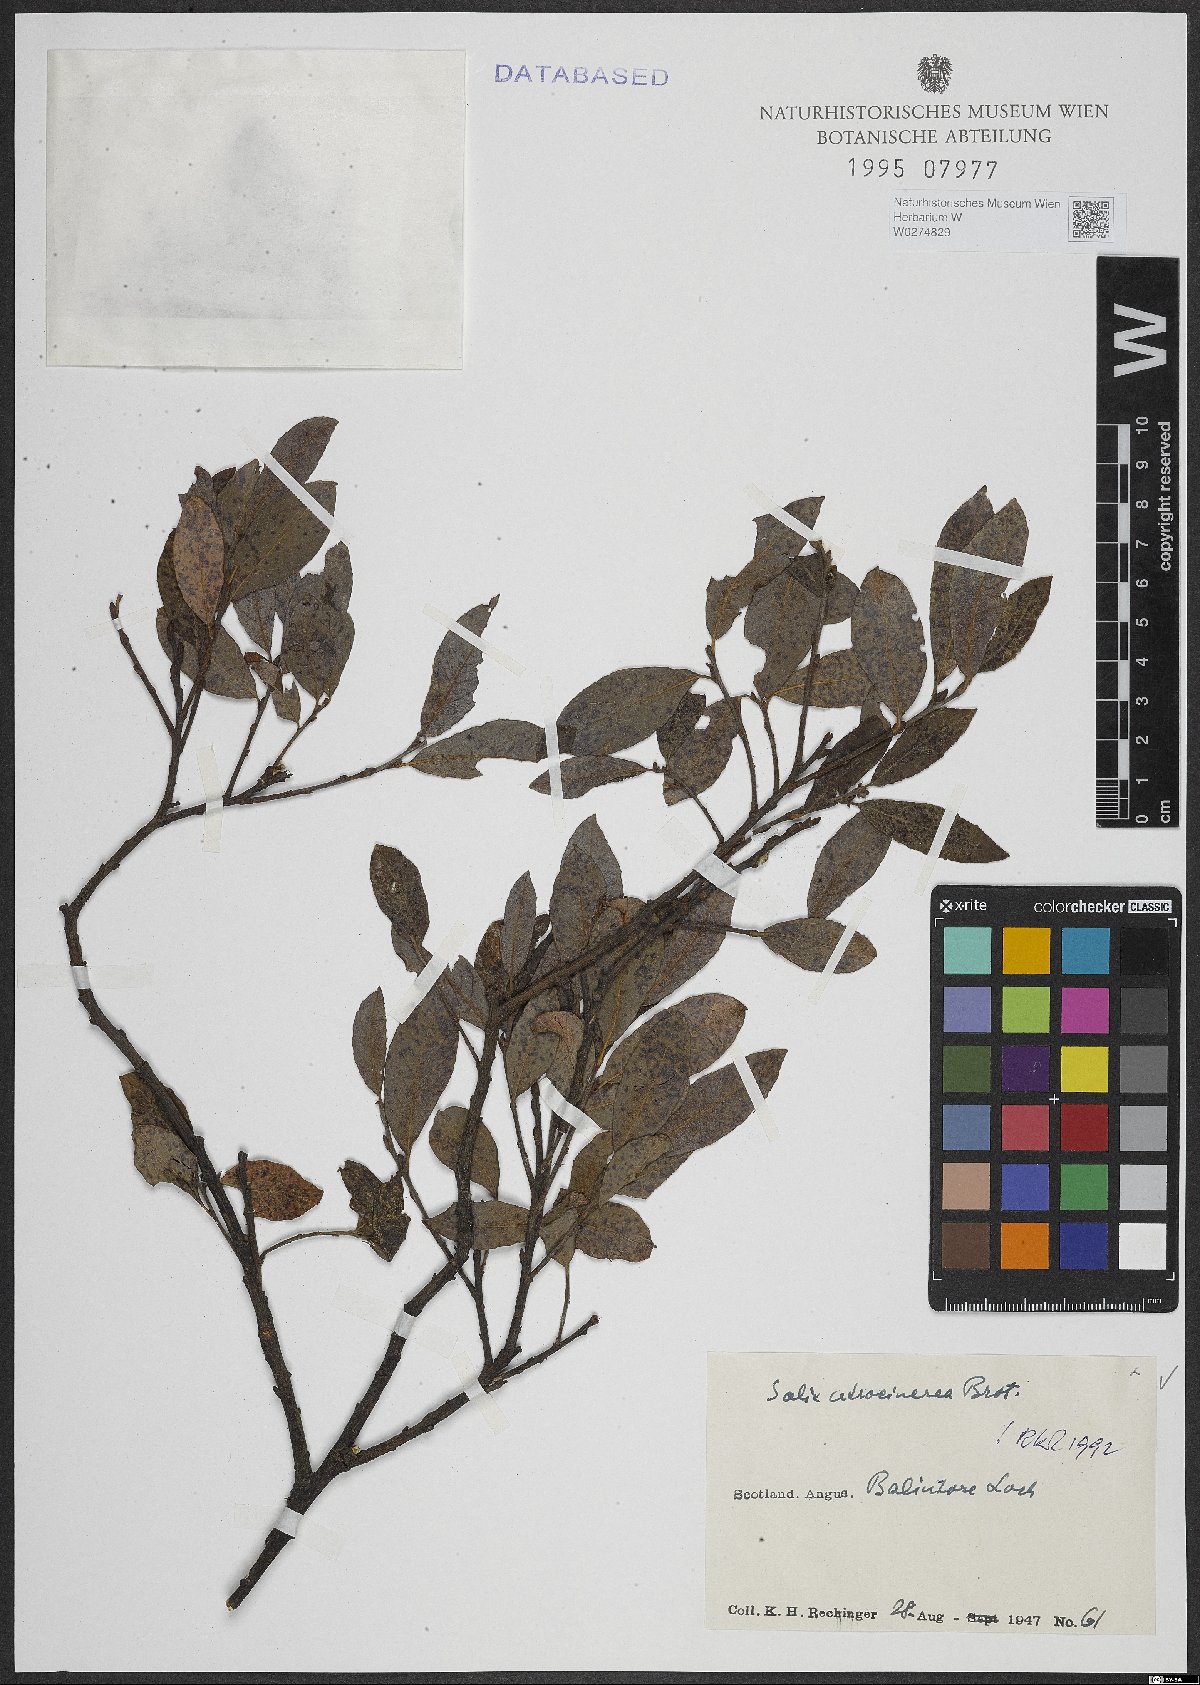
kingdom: Plantae
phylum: Tracheophyta
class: Magnoliopsida
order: Malpighiales
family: Salicaceae
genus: Salix
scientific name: Salix atrocinerea
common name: Rusty willow
